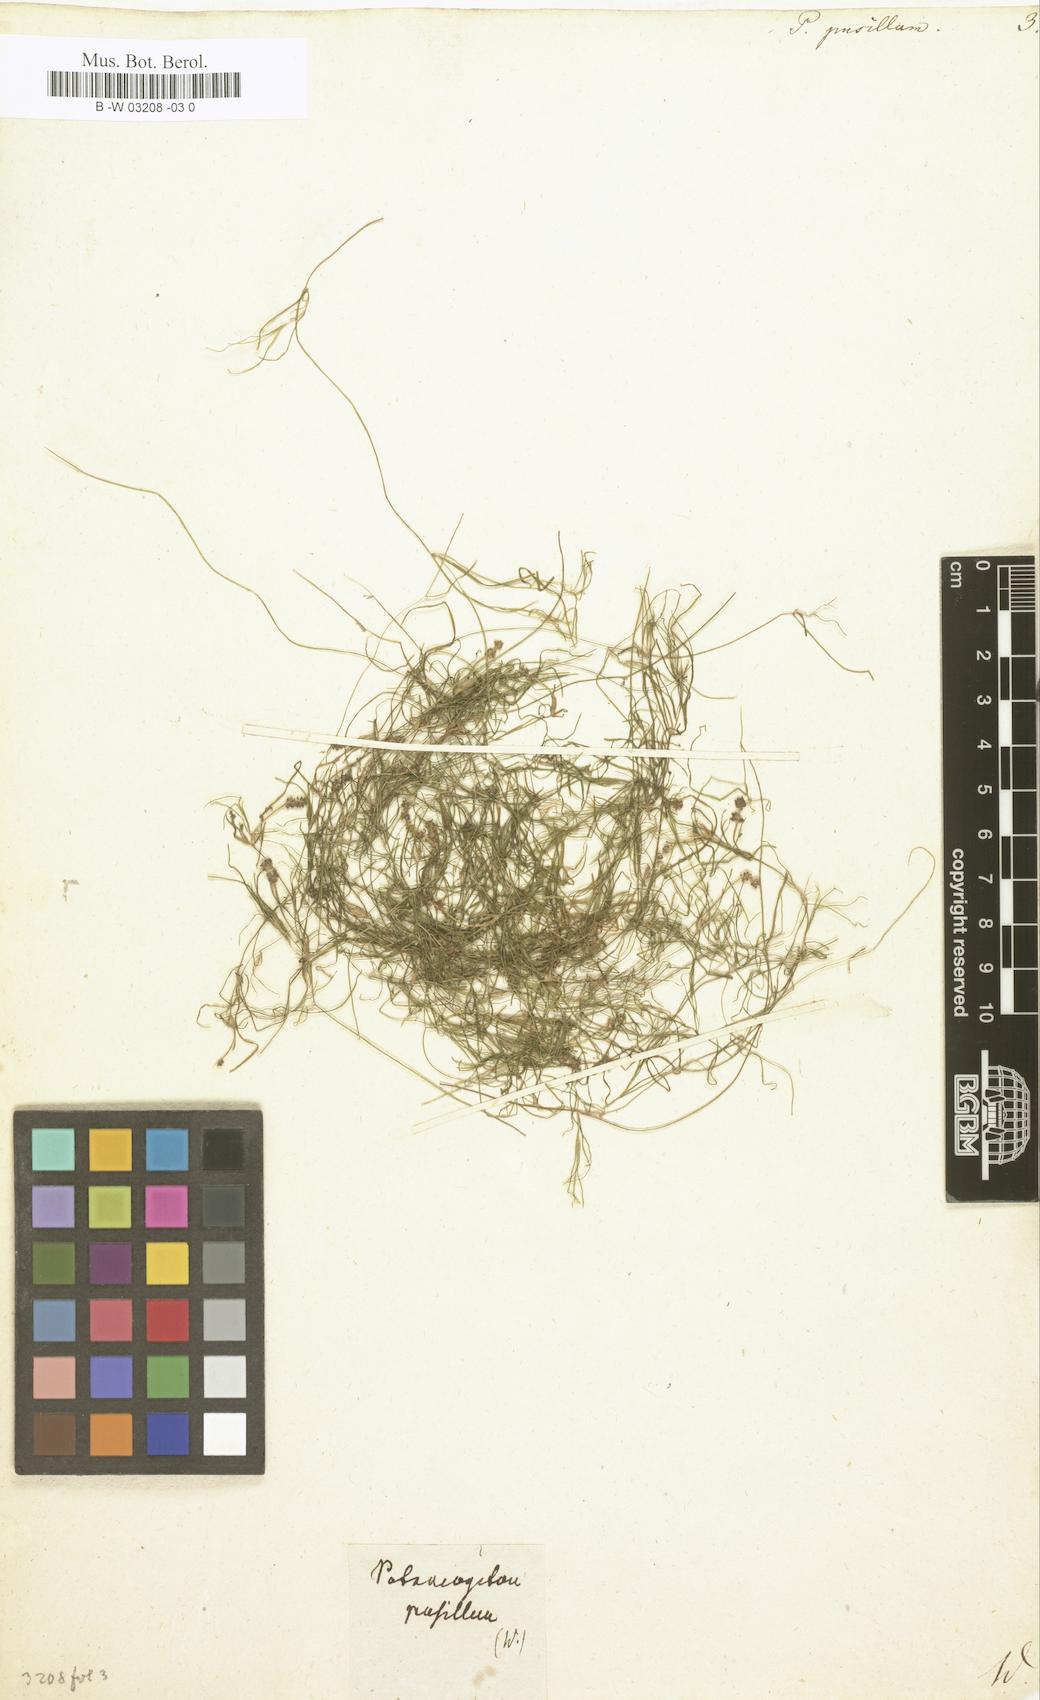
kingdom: Plantae
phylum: Tracheophyta
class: Liliopsida
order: Alismatales
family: Potamogetonaceae
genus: Potamogeton
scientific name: Potamogeton pusillus
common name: Lesser pondweed
